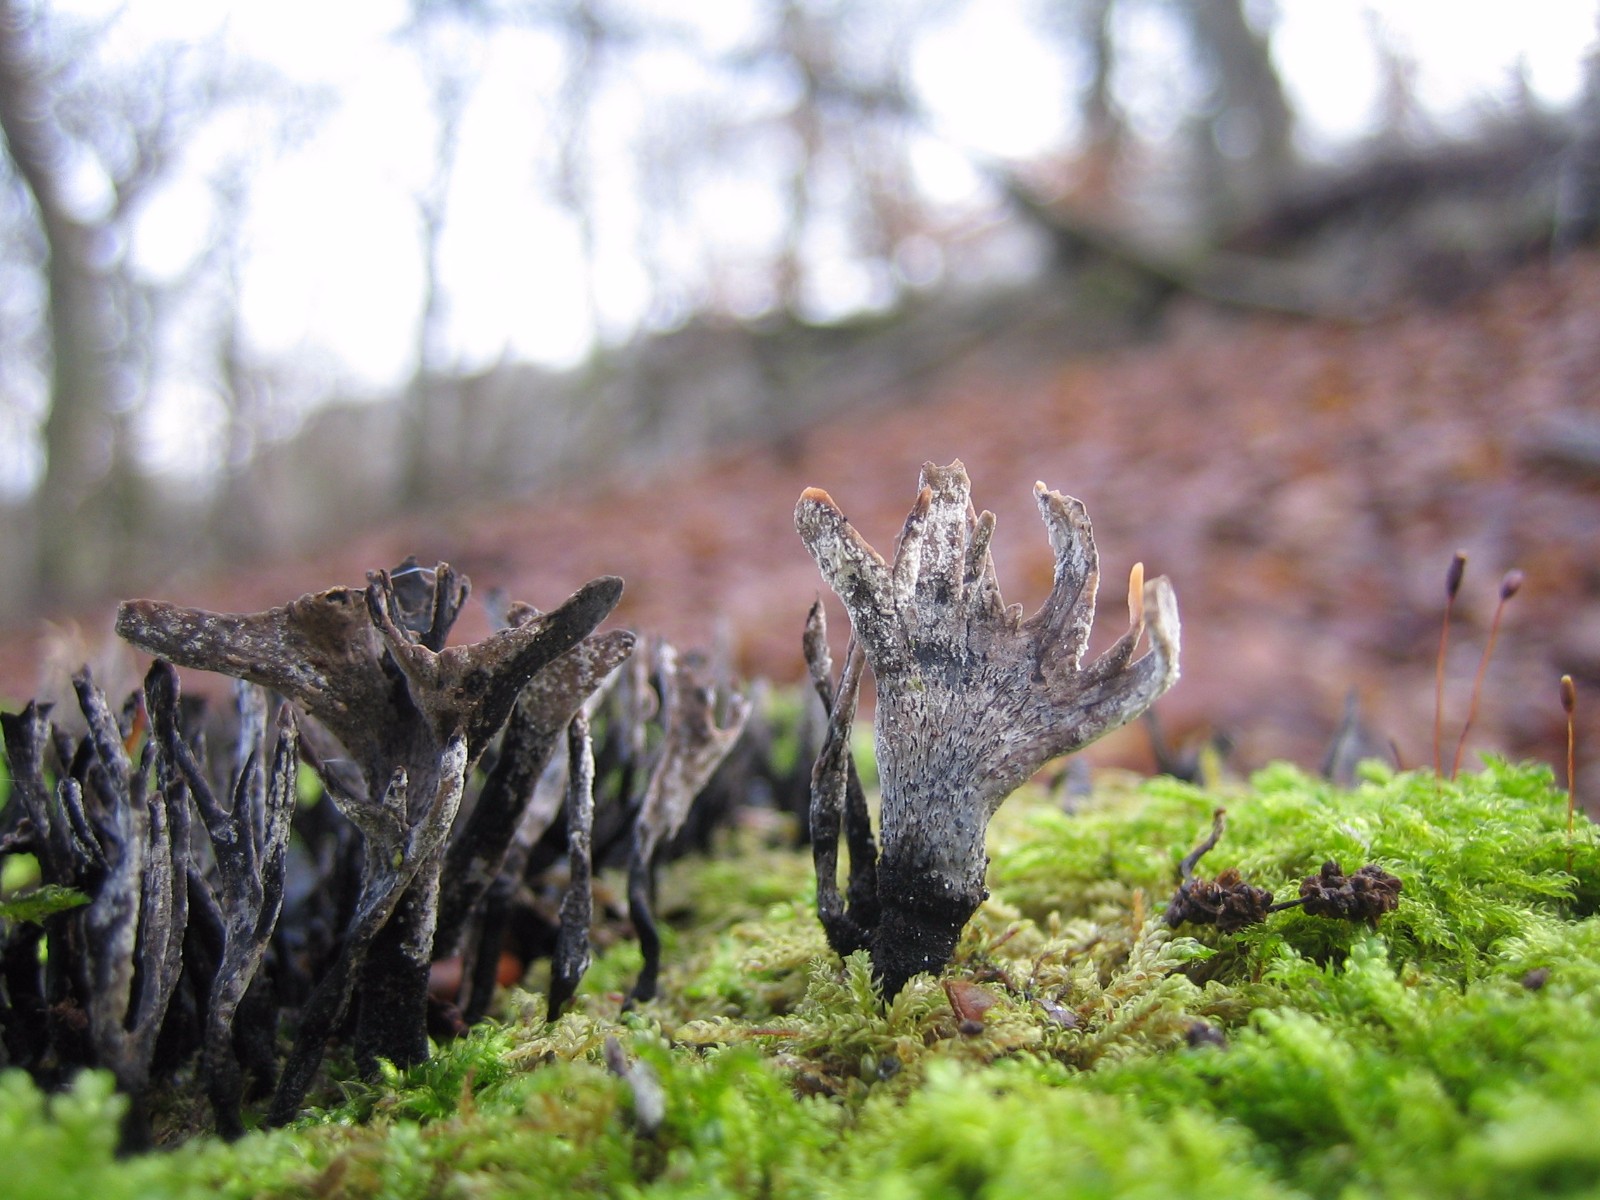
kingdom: Fungi
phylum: Ascomycota
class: Sordariomycetes
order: Xylariales
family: Xylariaceae
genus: Xylaria
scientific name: Xylaria hypoxylon
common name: grenet stødsvamp
